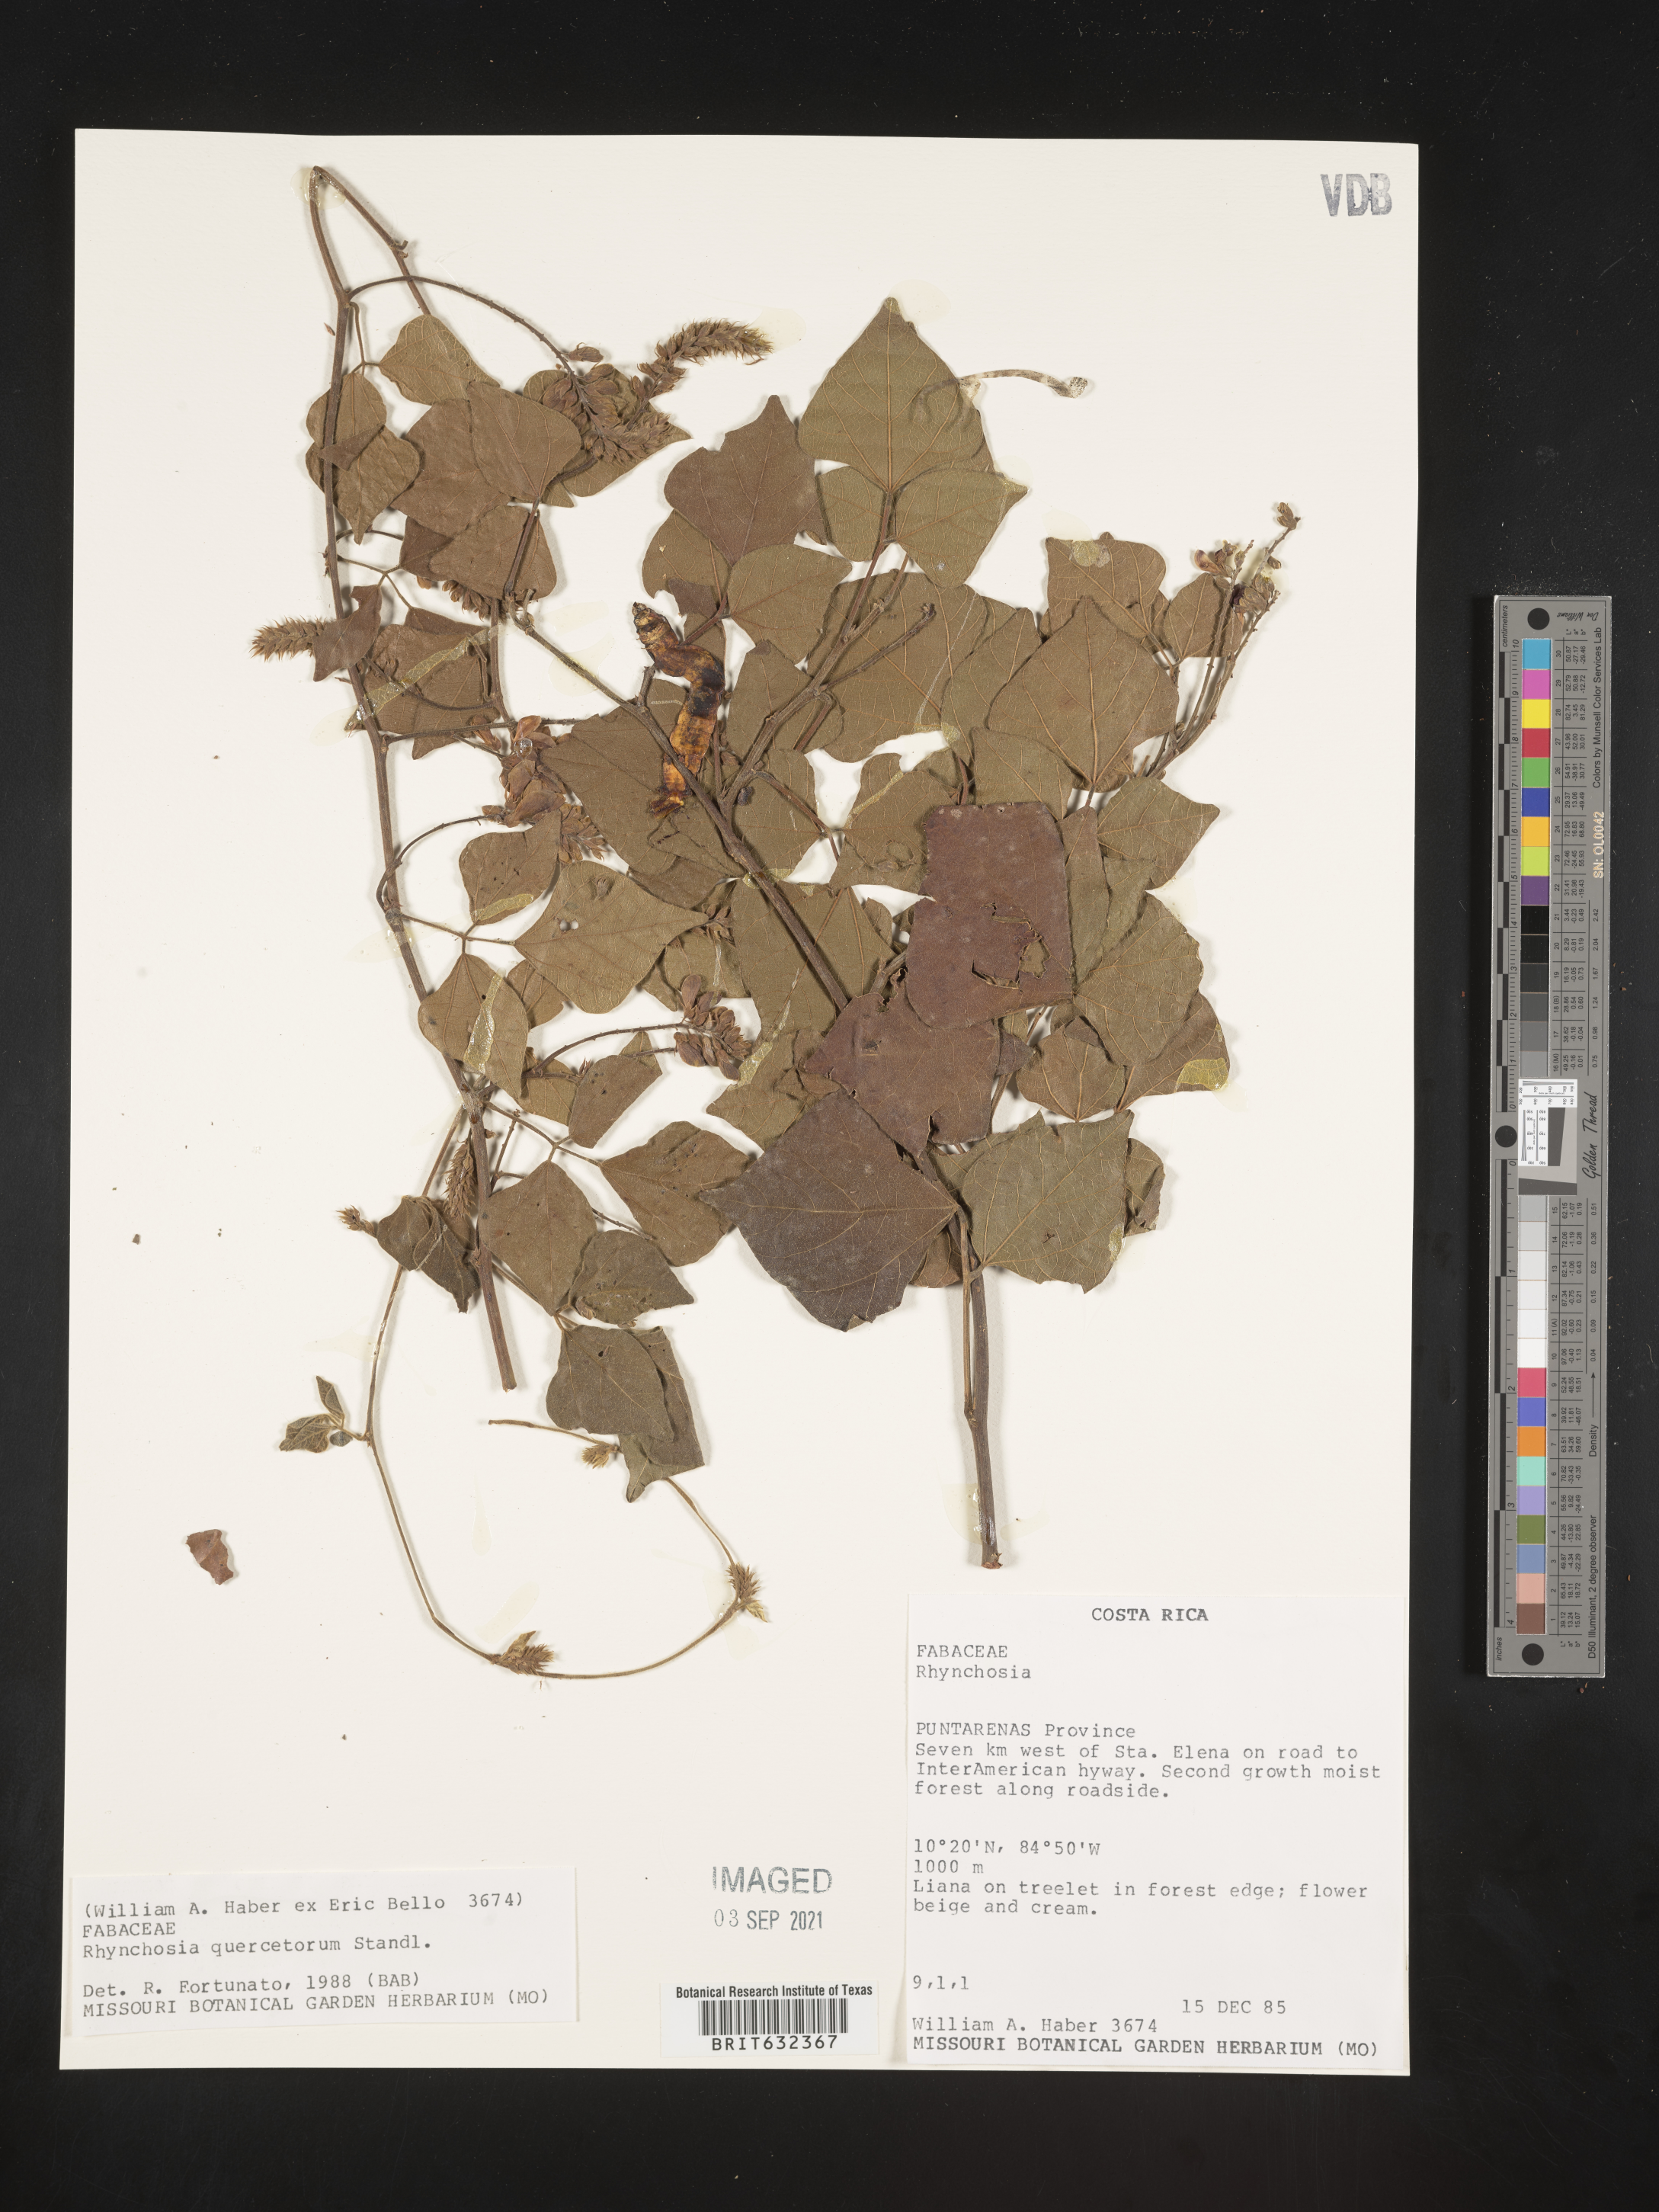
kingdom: Plantae
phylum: Tracheophyta
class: Magnoliopsida
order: Fabales
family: Fabaceae
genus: Rhynchosia
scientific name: Rhynchosia
